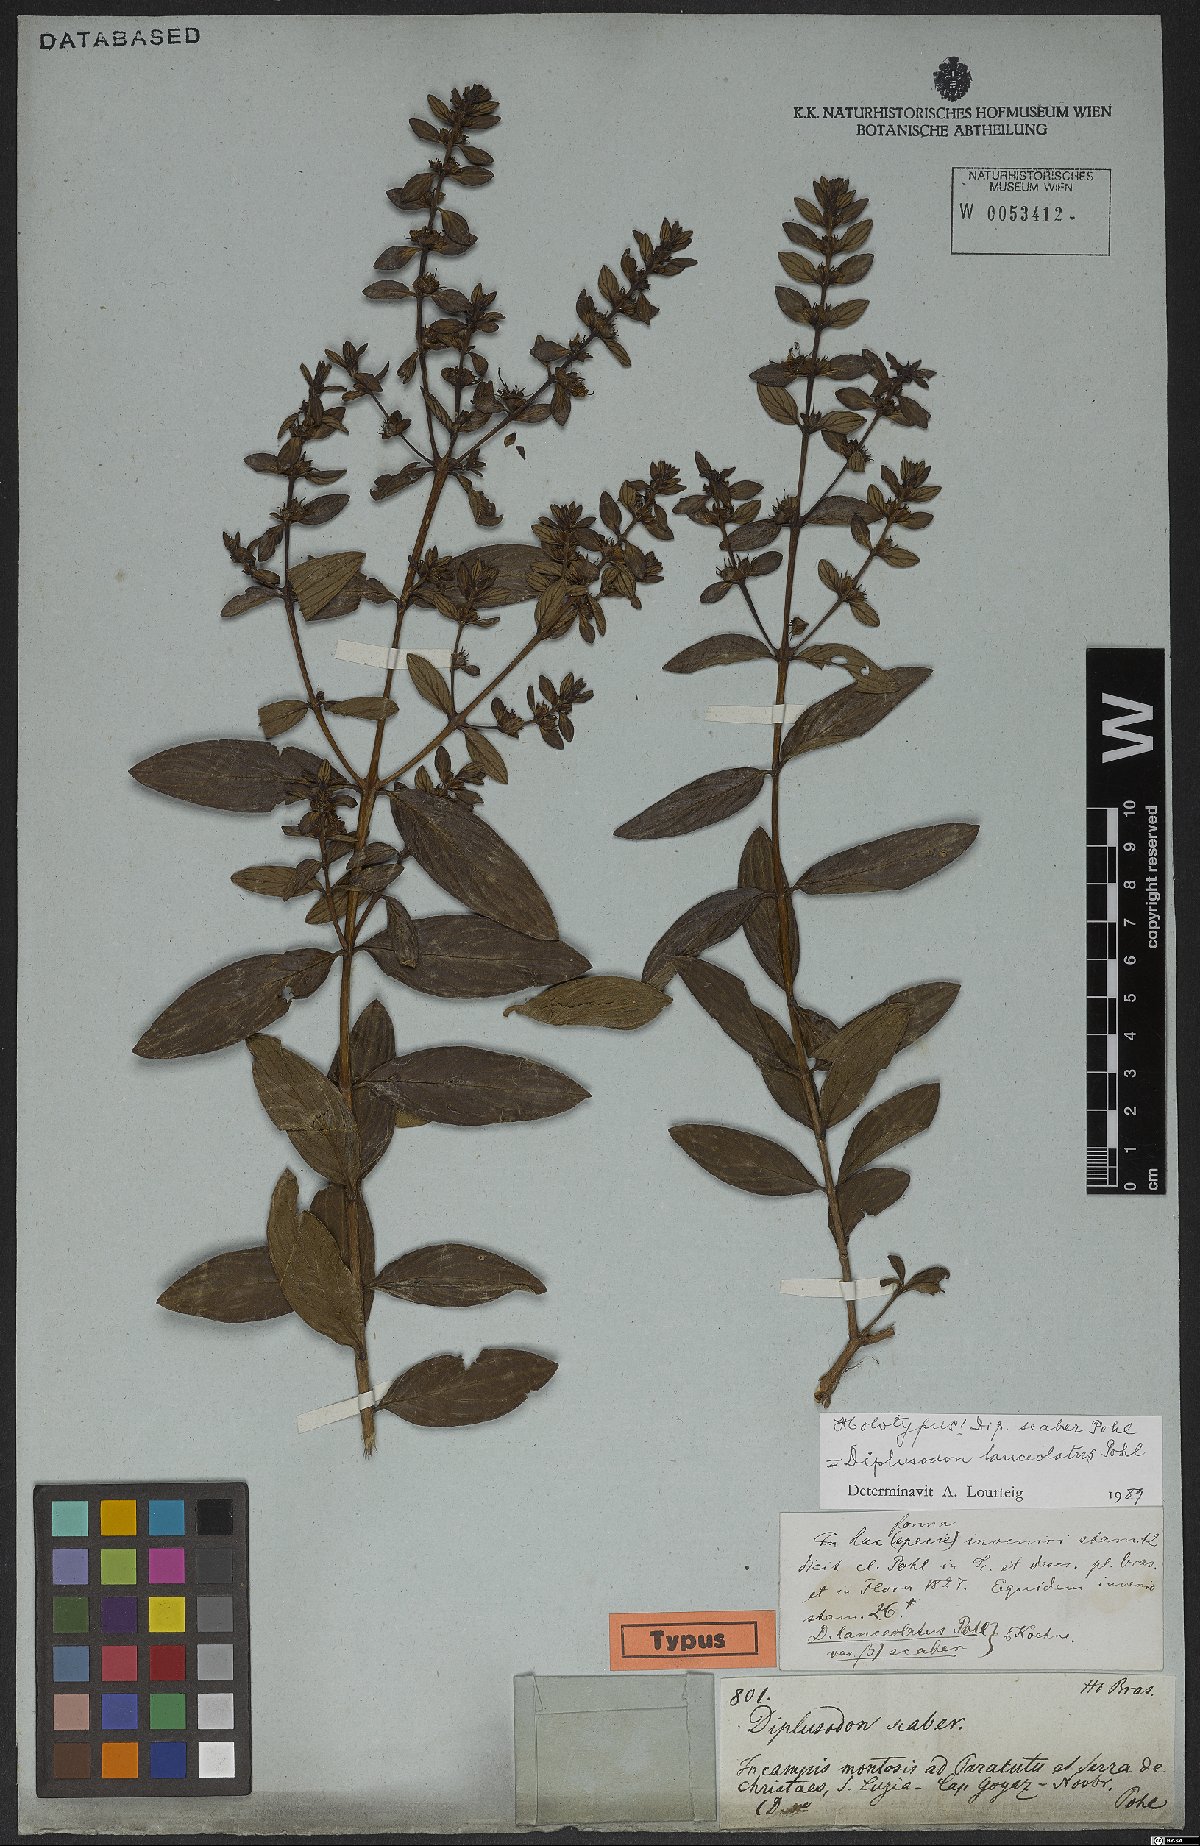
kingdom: Plantae
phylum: Tracheophyta
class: Magnoliopsida
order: Myrtales
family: Lythraceae
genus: Diplusodon
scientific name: Diplusodon lanceolatus
